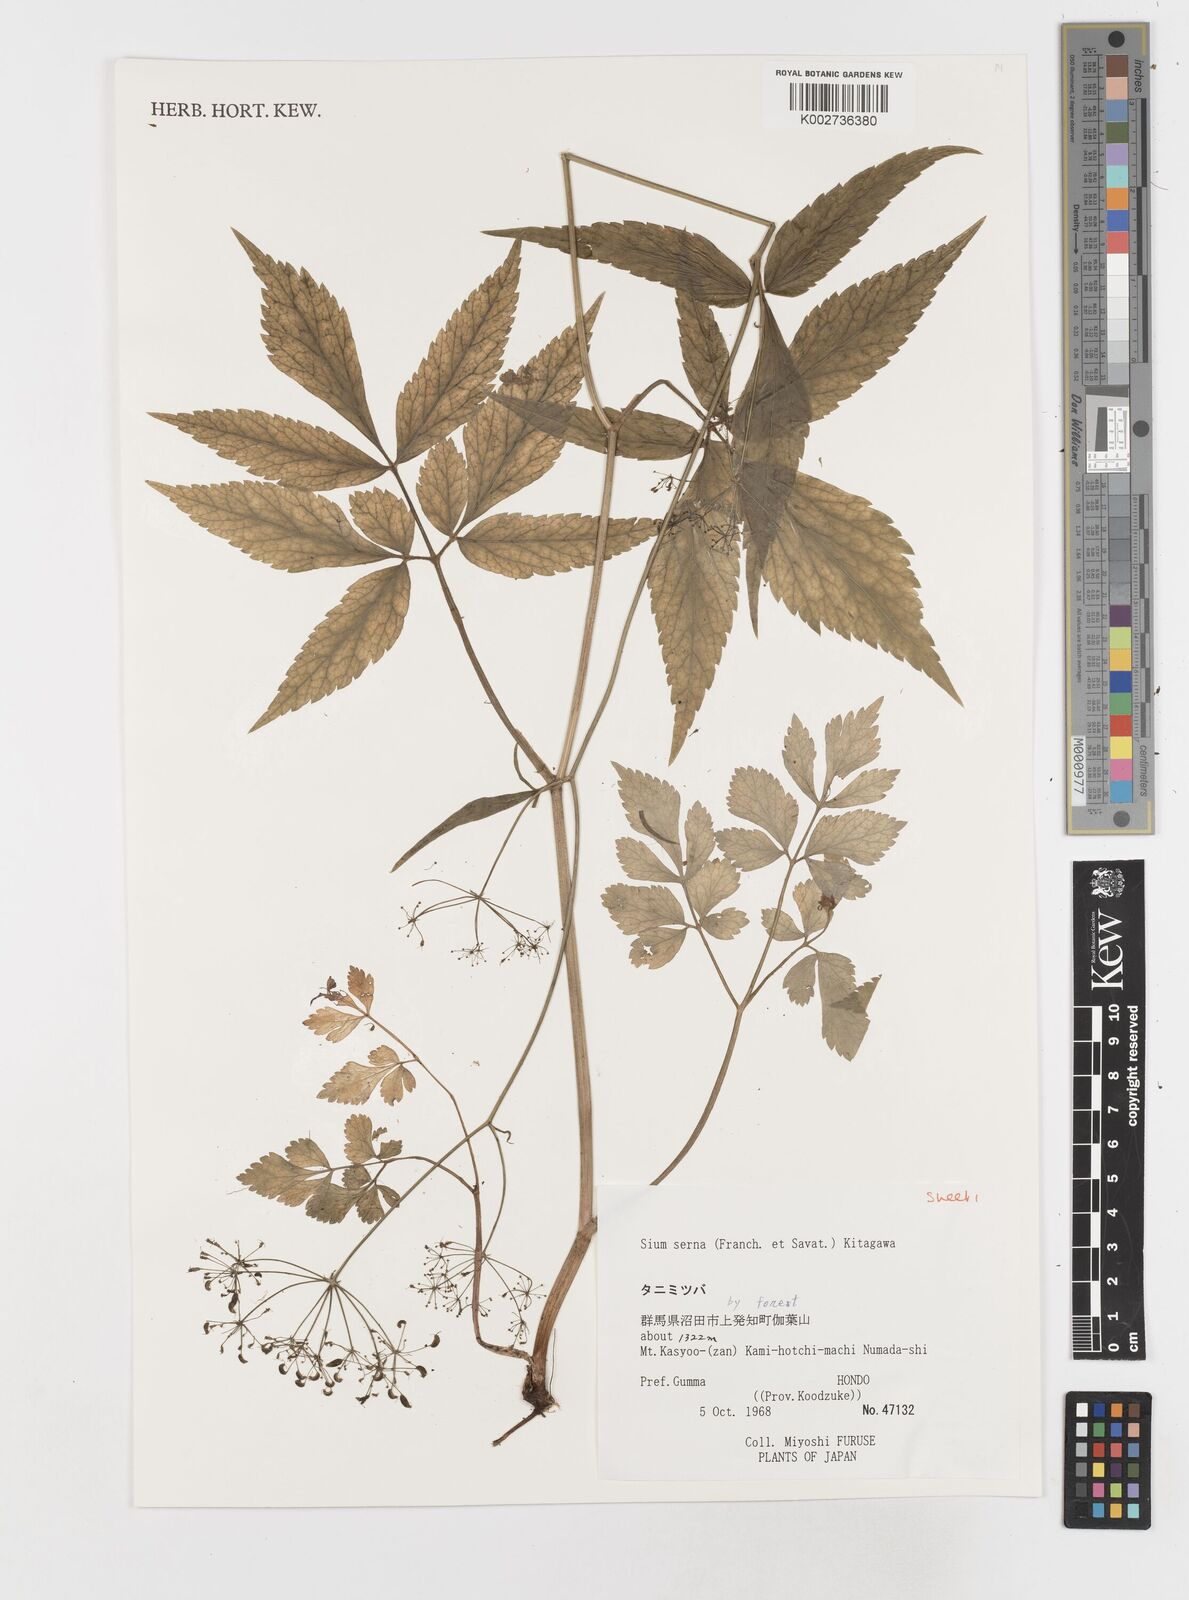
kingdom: Plantae
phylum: Tracheophyta
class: Magnoliopsida
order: Apiales
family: Apiaceae
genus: Sium
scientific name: Sium serra
